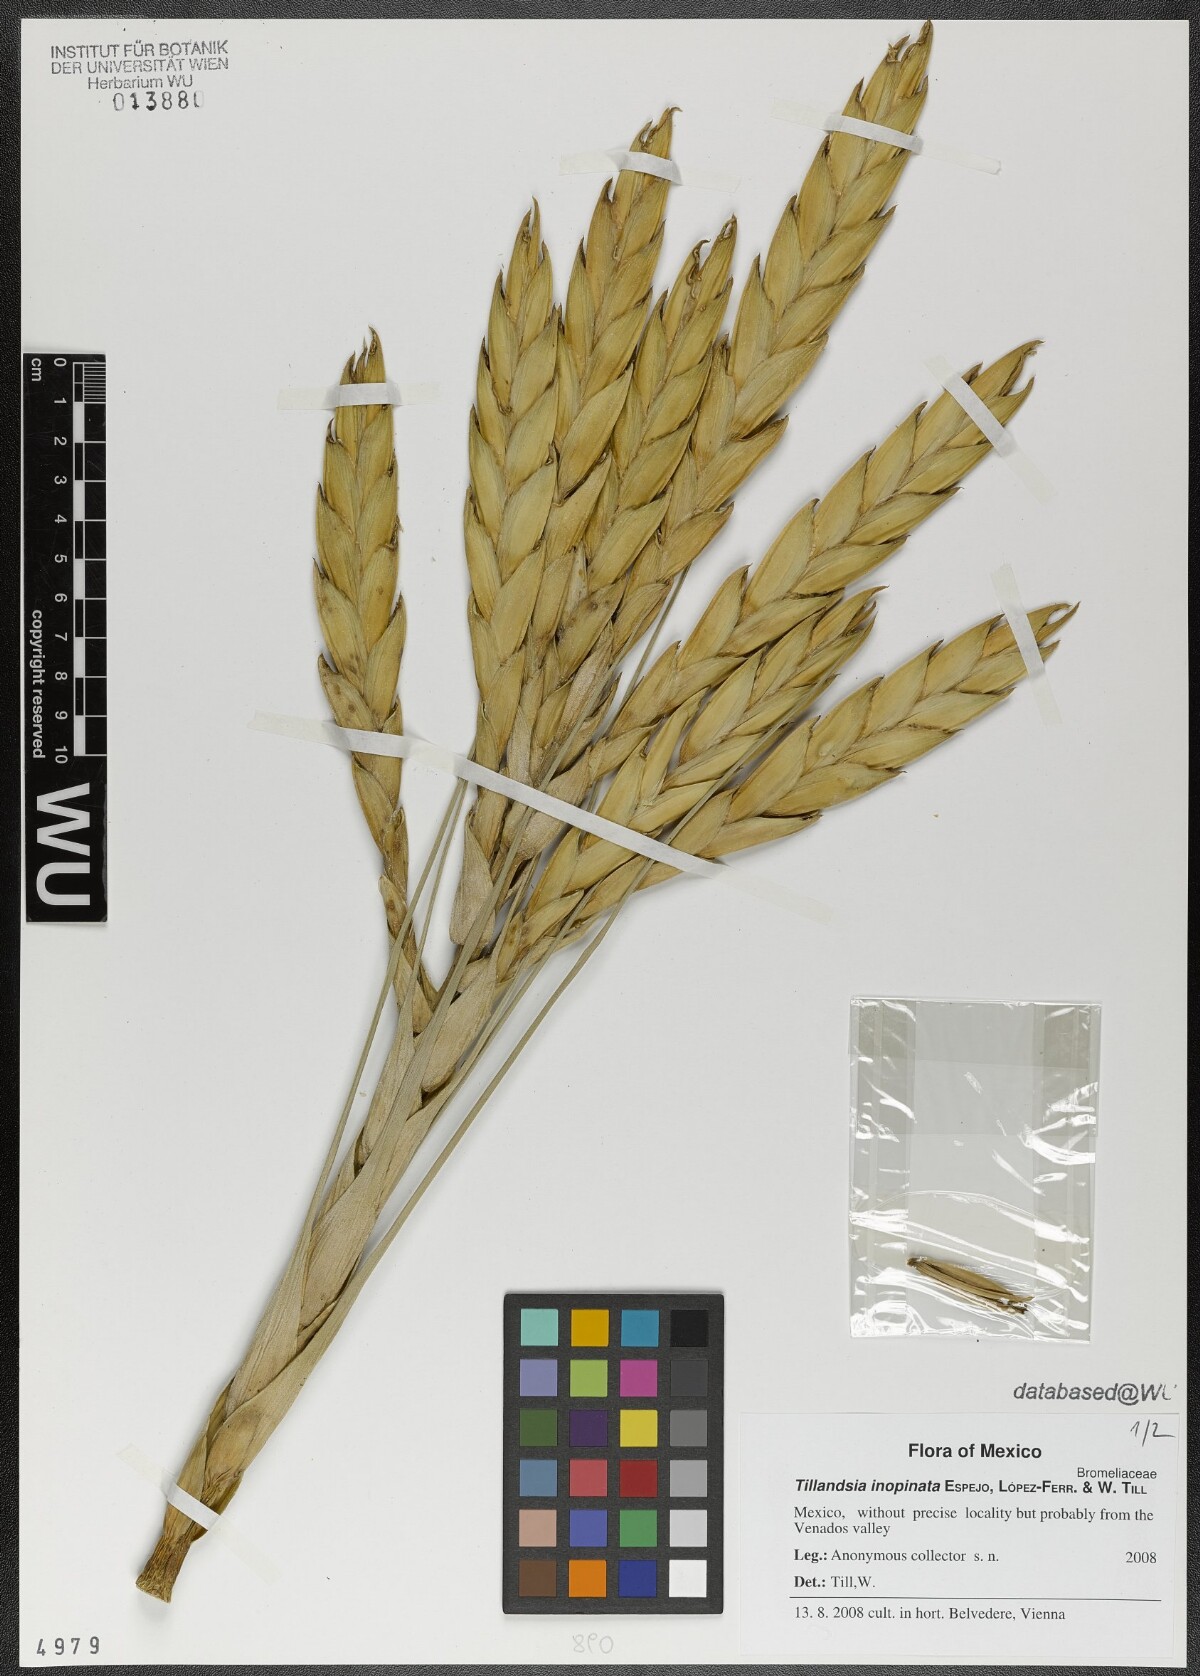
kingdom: Plantae
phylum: Tracheophyta
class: Liliopsida
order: Poales
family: Bromeliaceae
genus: Tillandsia
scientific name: Tillandsia inopinata
